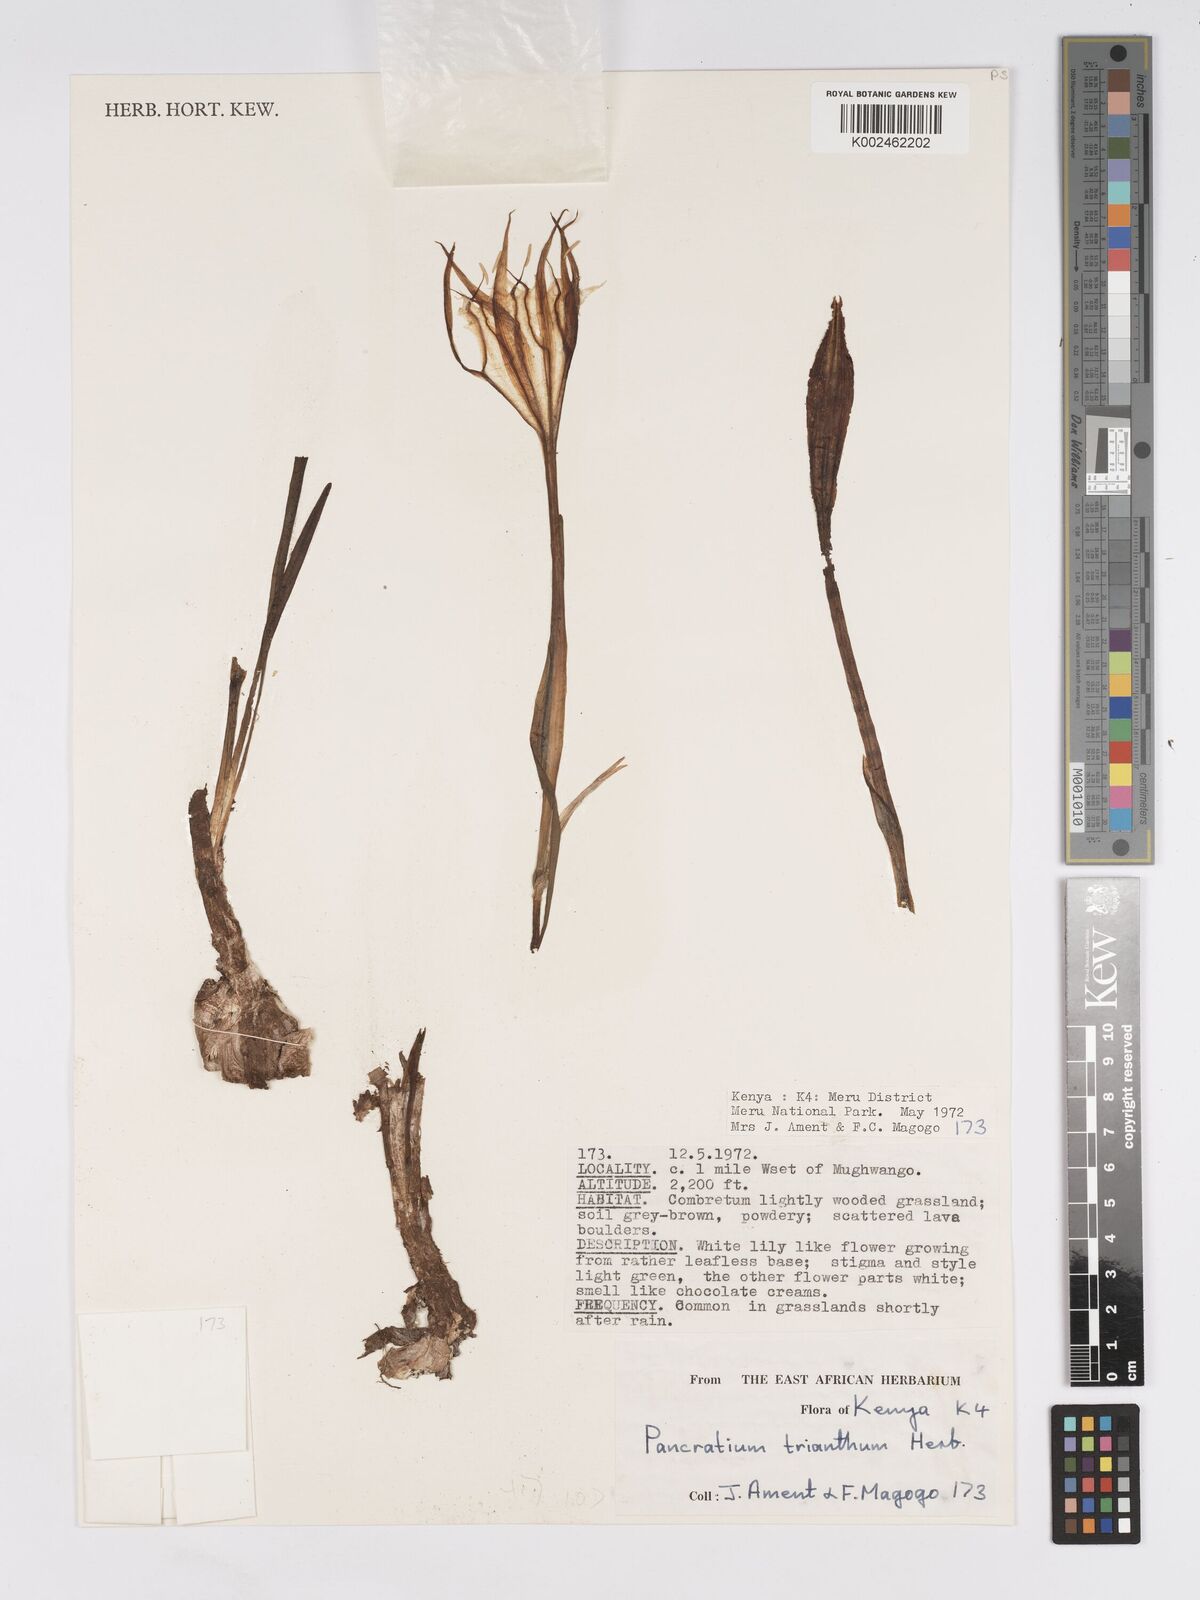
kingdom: Plantae
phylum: Tracheophyta
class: Liliopsida
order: Asparagales
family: Amaryllidaceae
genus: Pancratium
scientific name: Pancratium trianthum
